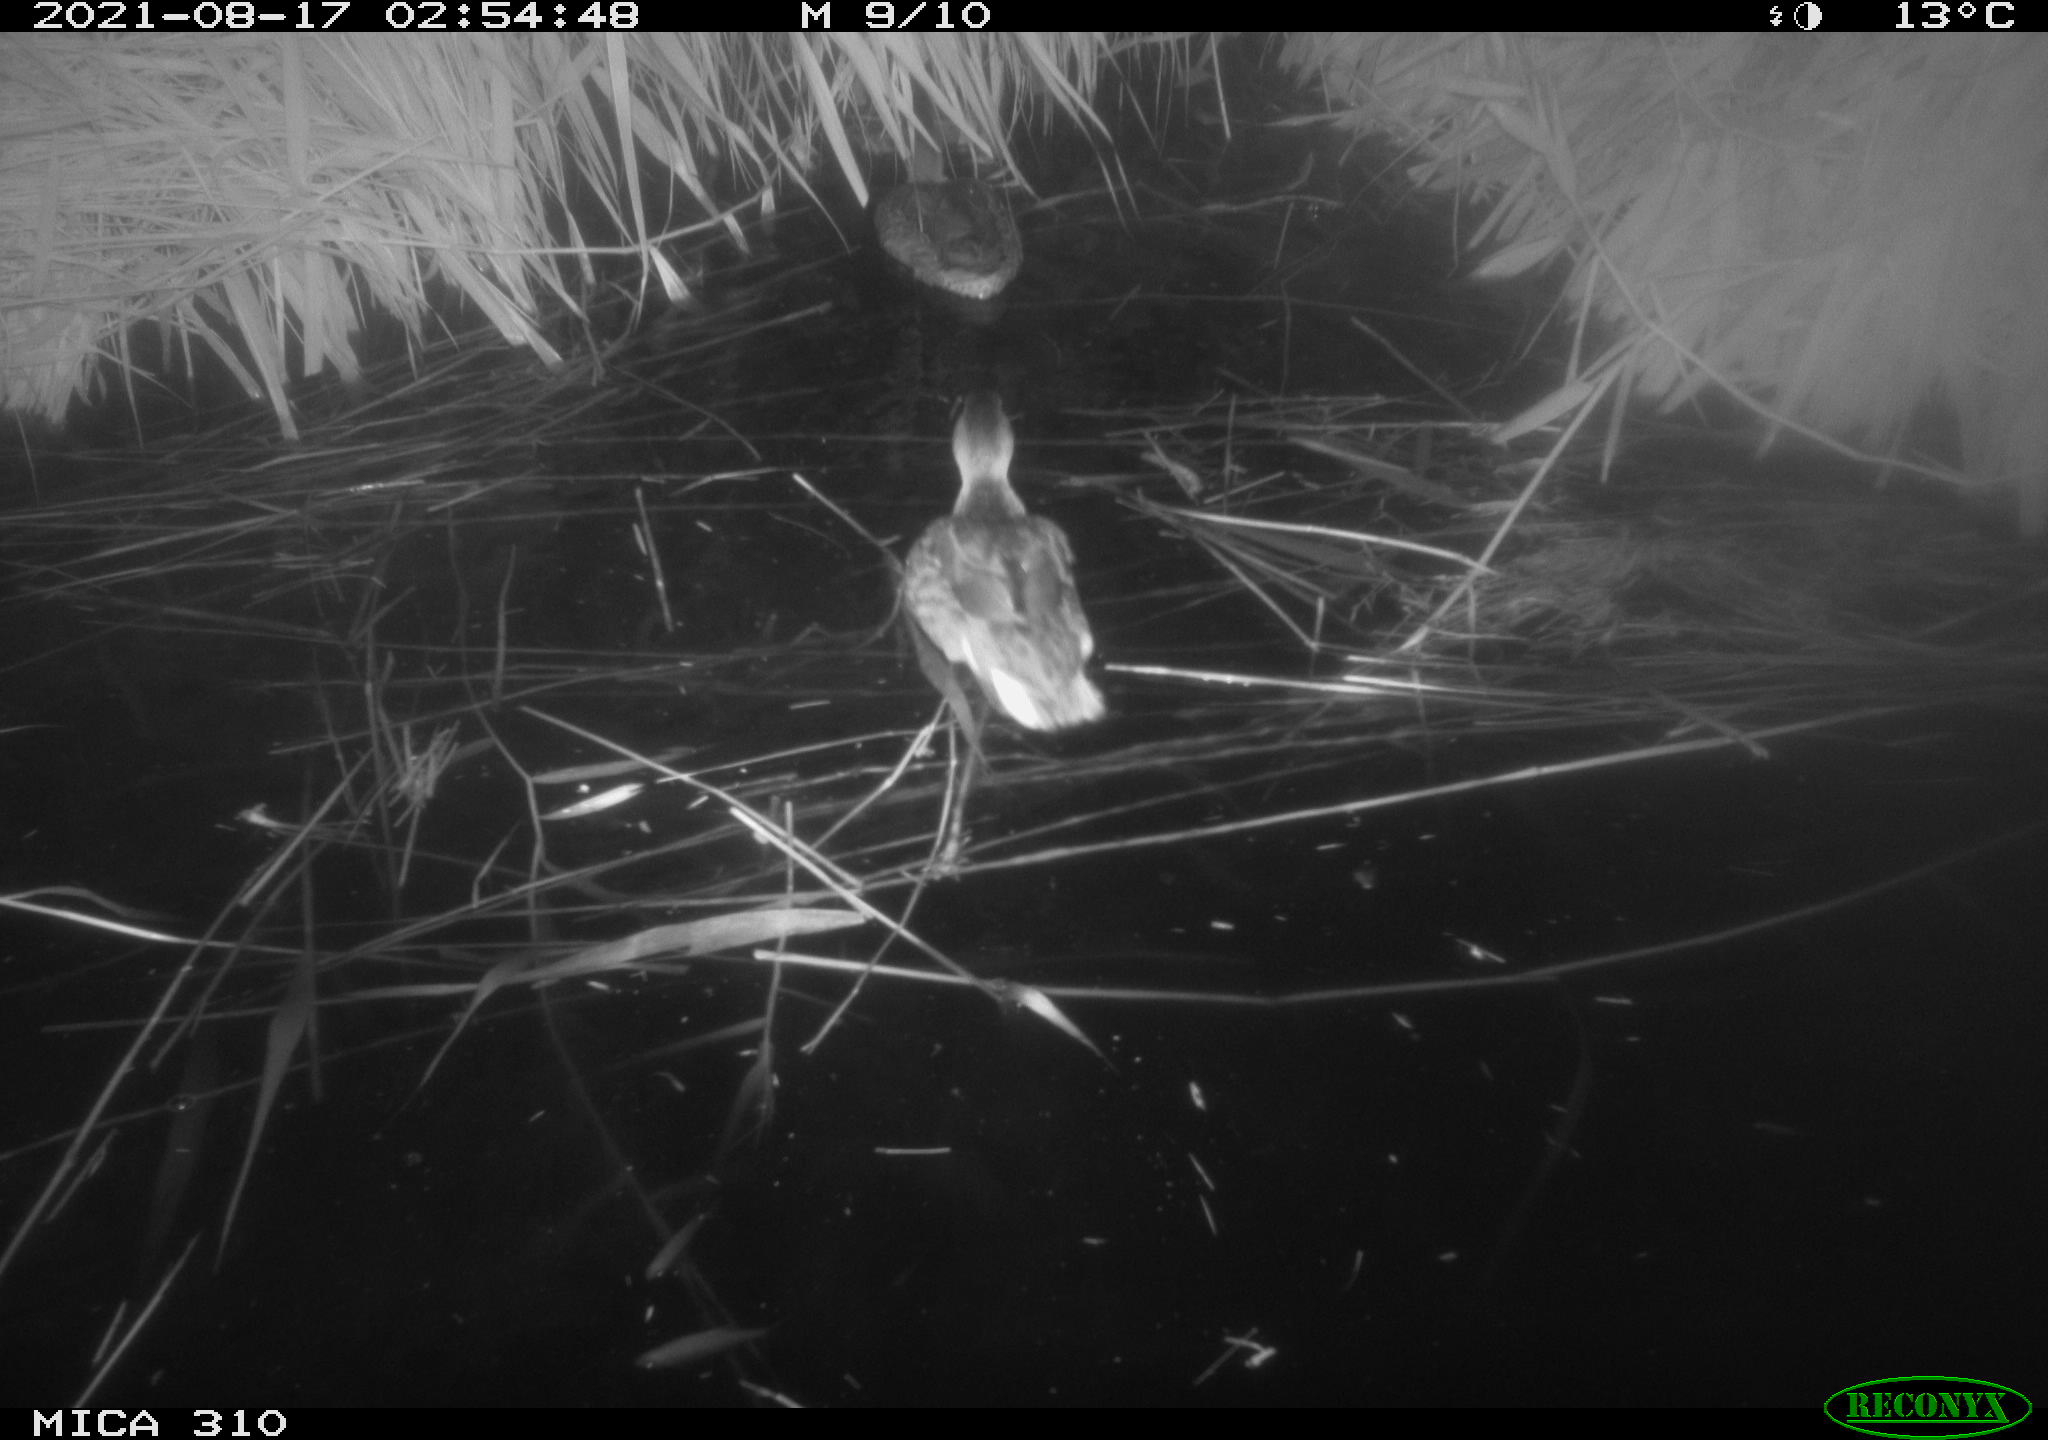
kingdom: Animalia
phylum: Chordata
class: Aves
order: Anseriformes
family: Anatidae
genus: Anas
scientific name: Anas platyrhynchos
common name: Mallard
